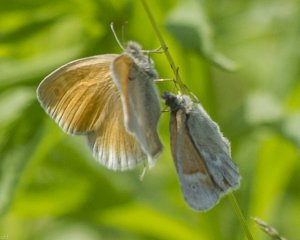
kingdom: Animalia
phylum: Arthropoda
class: Insecta
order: Lepidoptera
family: Nymphalidae
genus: Coenonympha
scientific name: Coenonympha tullia
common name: Large Heath
